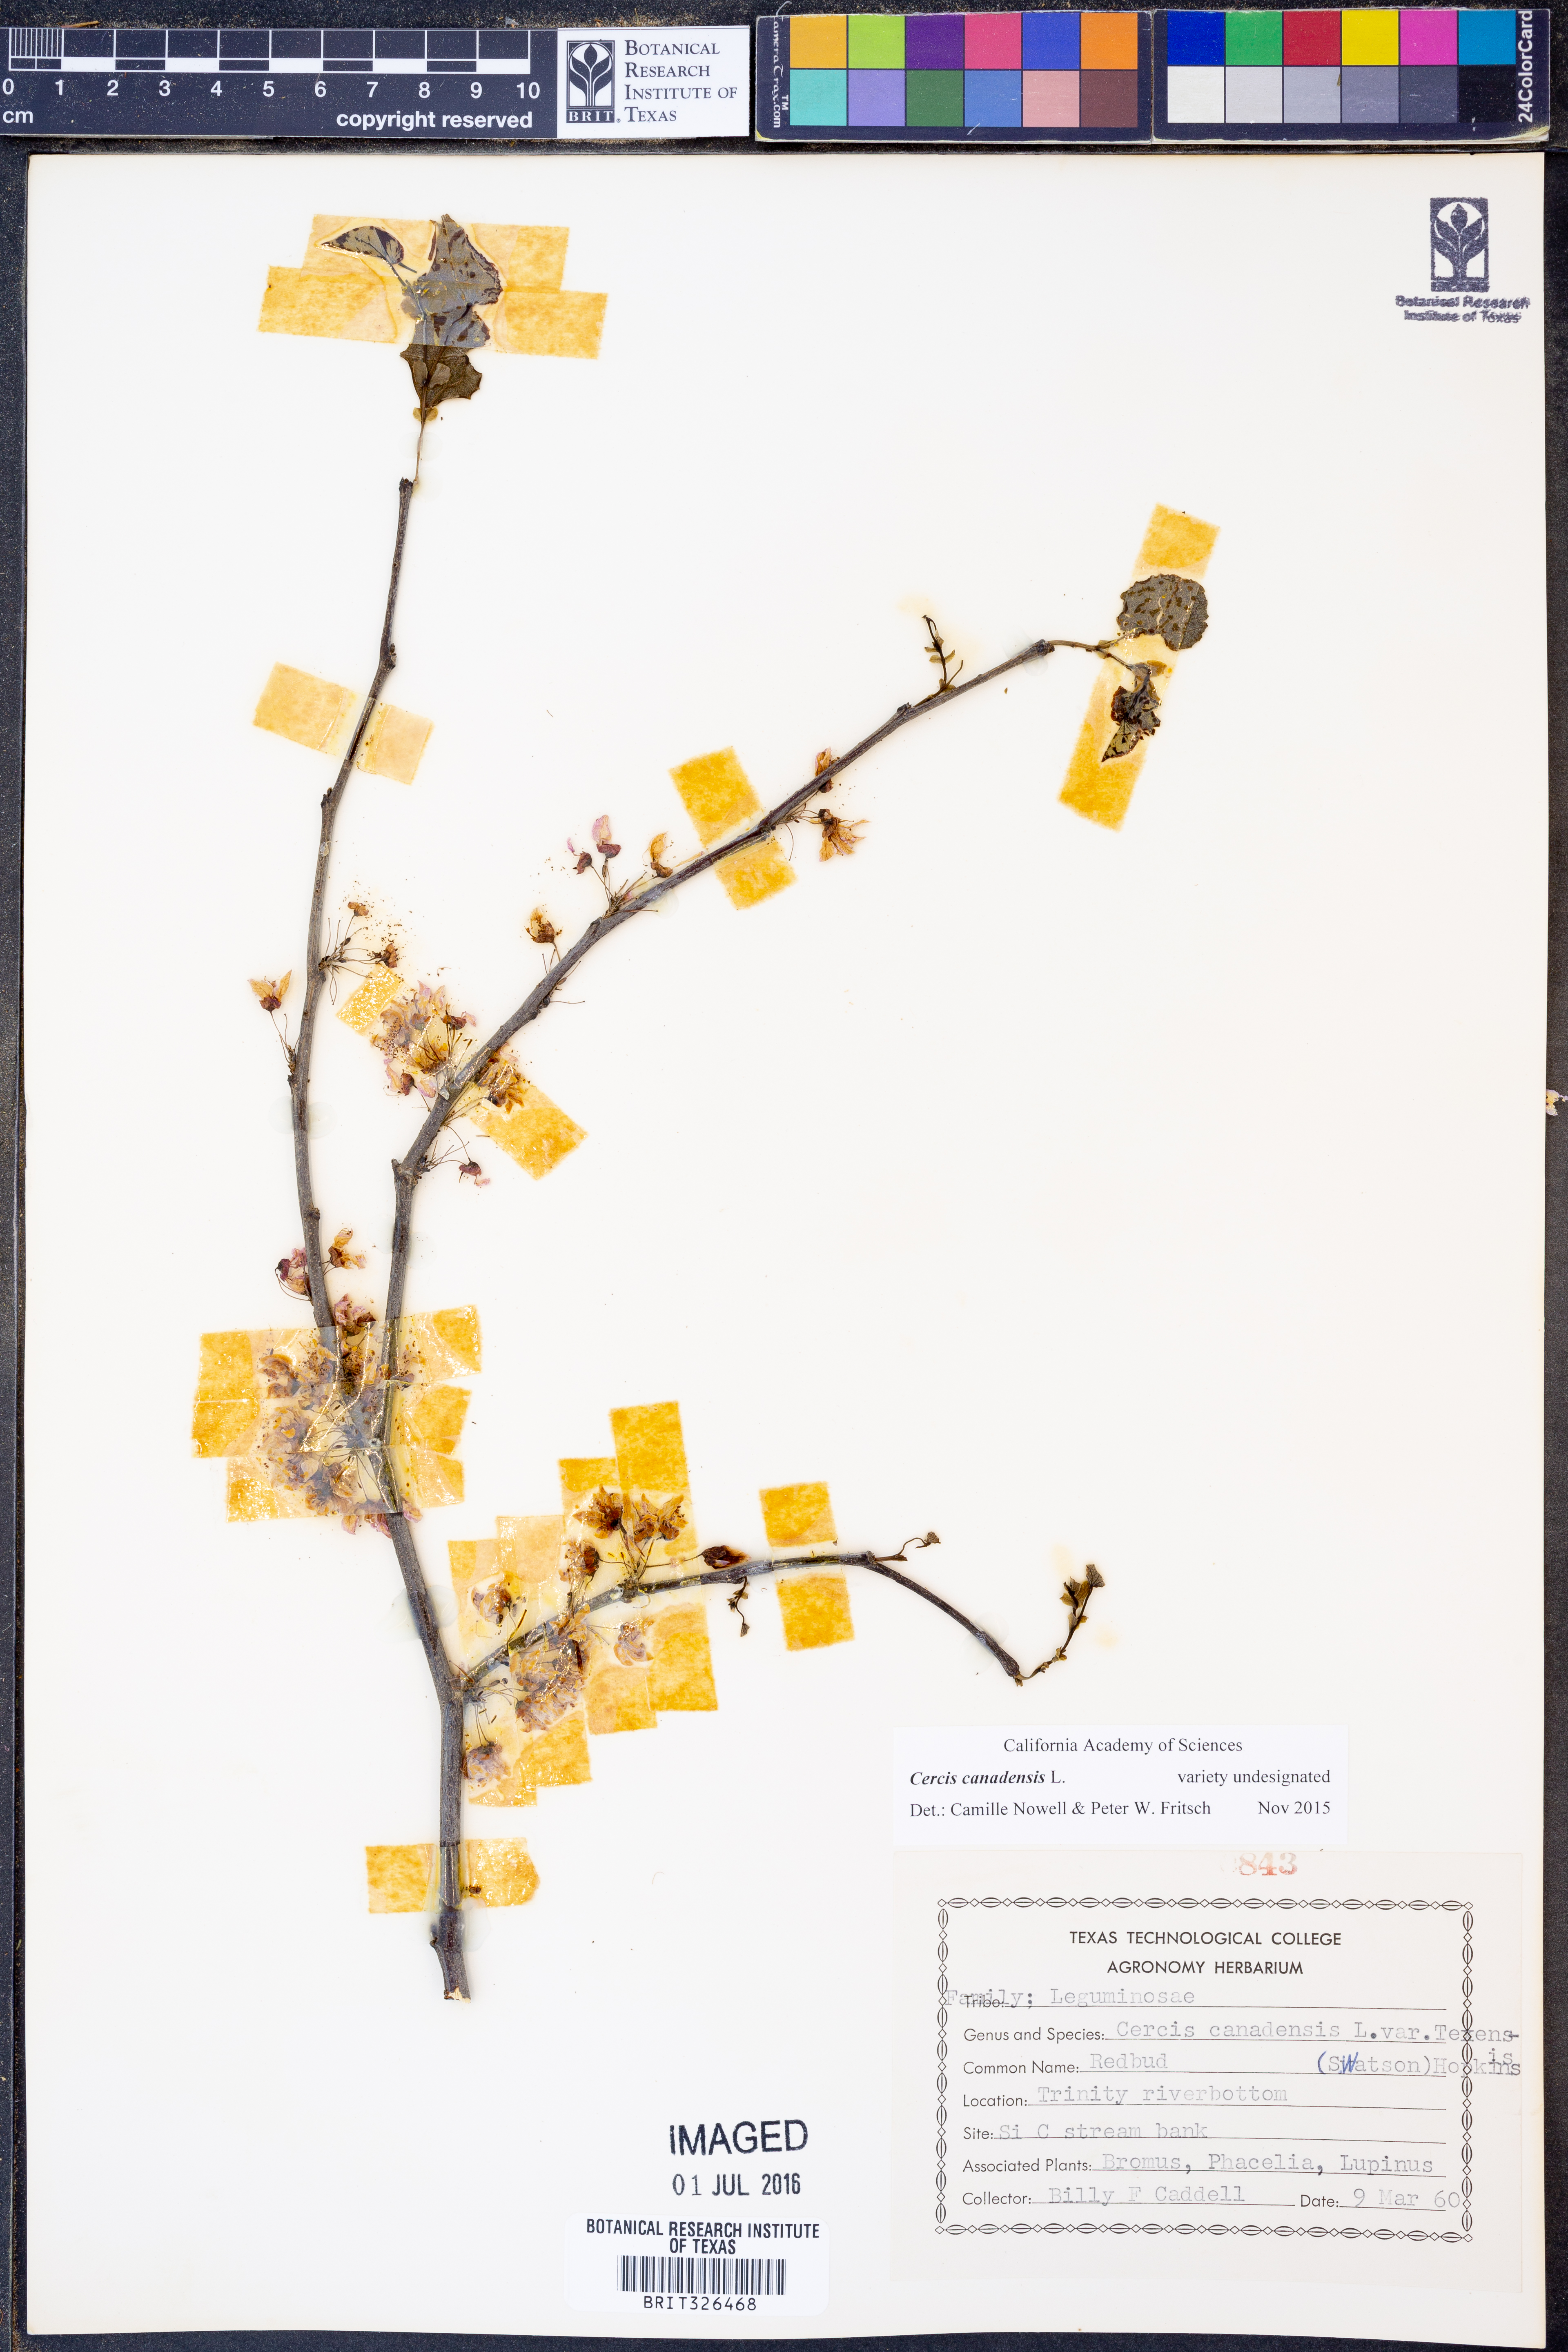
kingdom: Plantae
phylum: Tracheophyta
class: Magnoliopsida
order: Fabales
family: Fabaceae
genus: Cercis
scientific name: Cercis canadensis
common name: Eastern redbud
